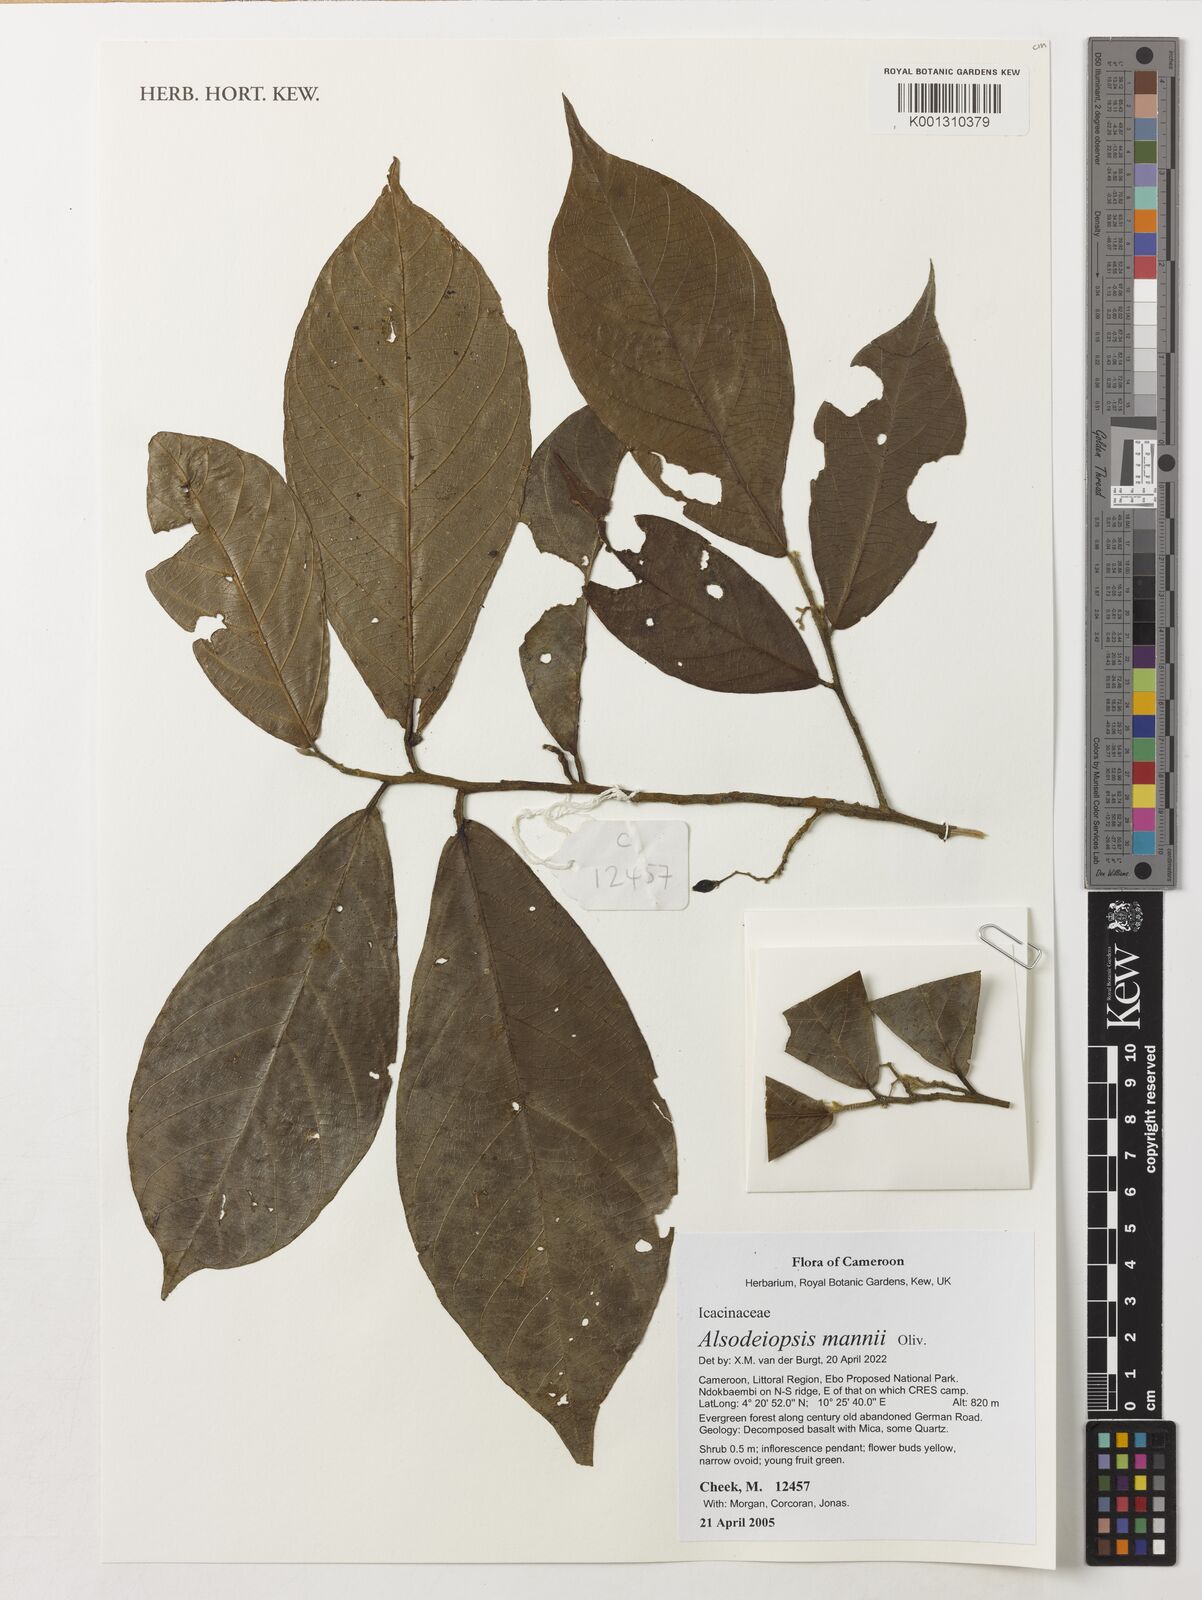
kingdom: Plantae
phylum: Tracheophyta
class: Magnoliopsida
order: Icacinales
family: Icacinaceae
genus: Alsodeiopsis
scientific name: Alsodeiopsis mannii
